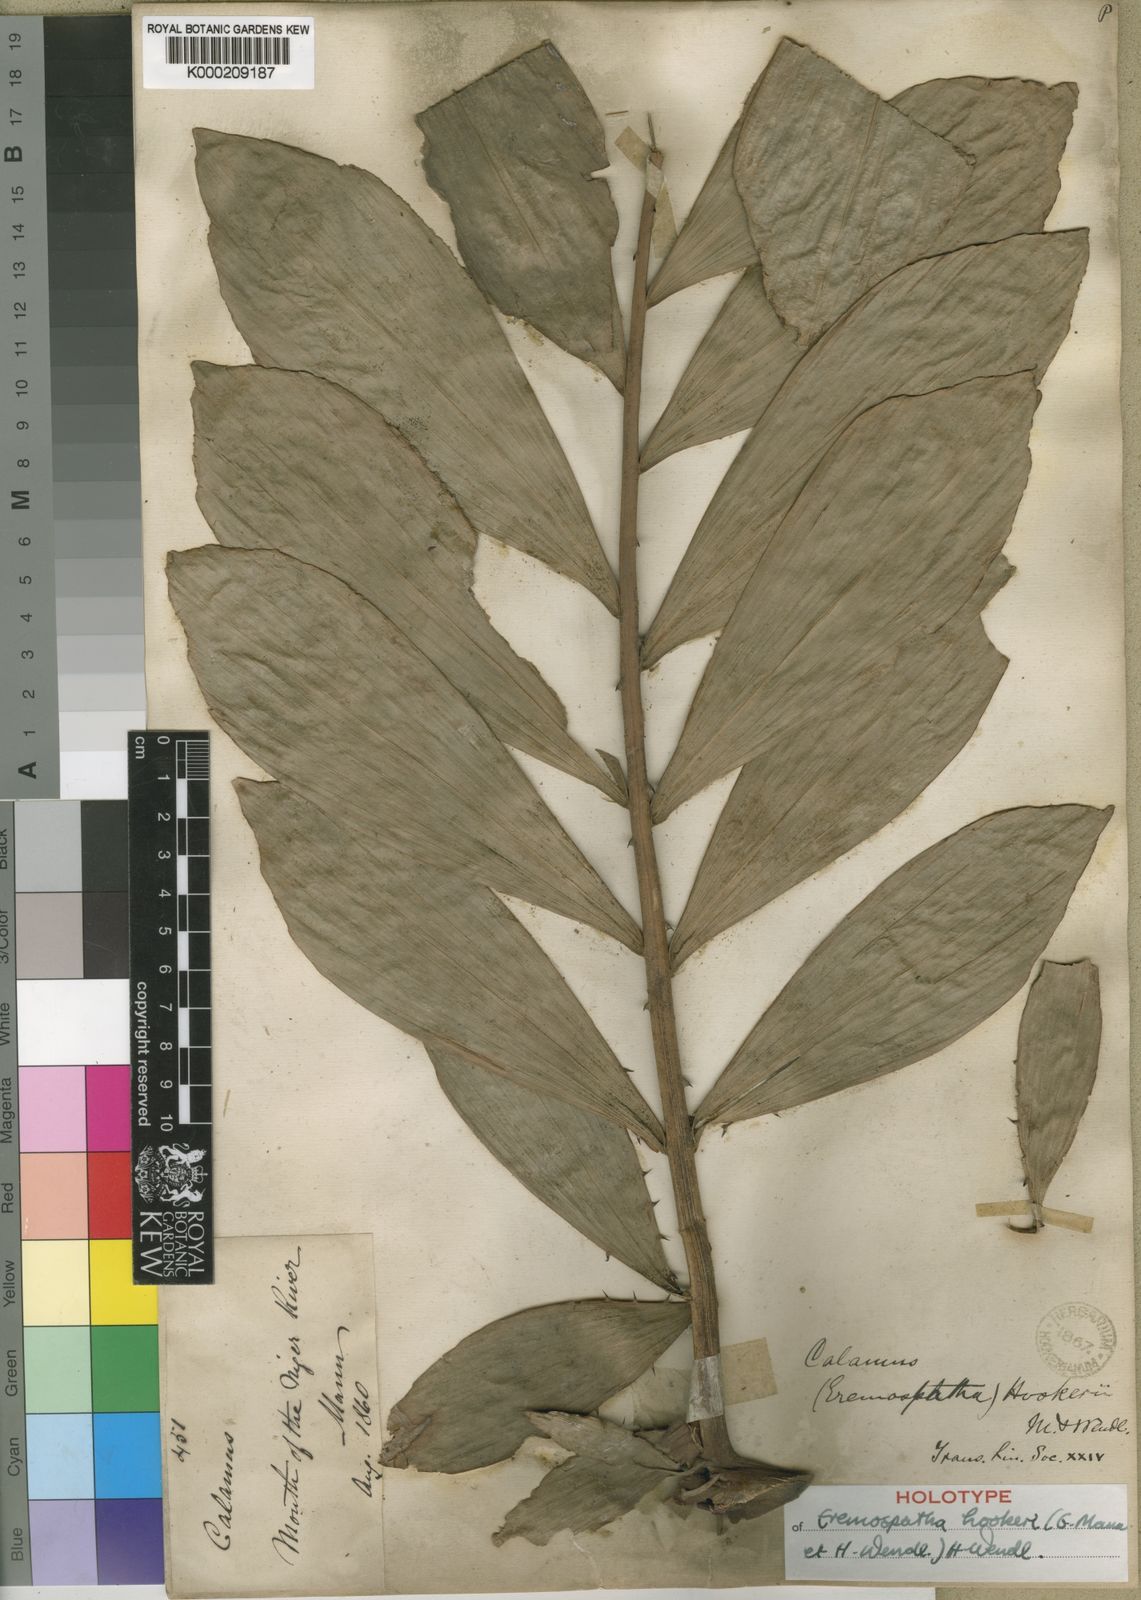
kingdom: Plantae
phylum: Tracheophyta
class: Liliopsida
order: Arecales
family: Arecaceae
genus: Eremospatha
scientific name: Eremospatha hookeri
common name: Rattan
